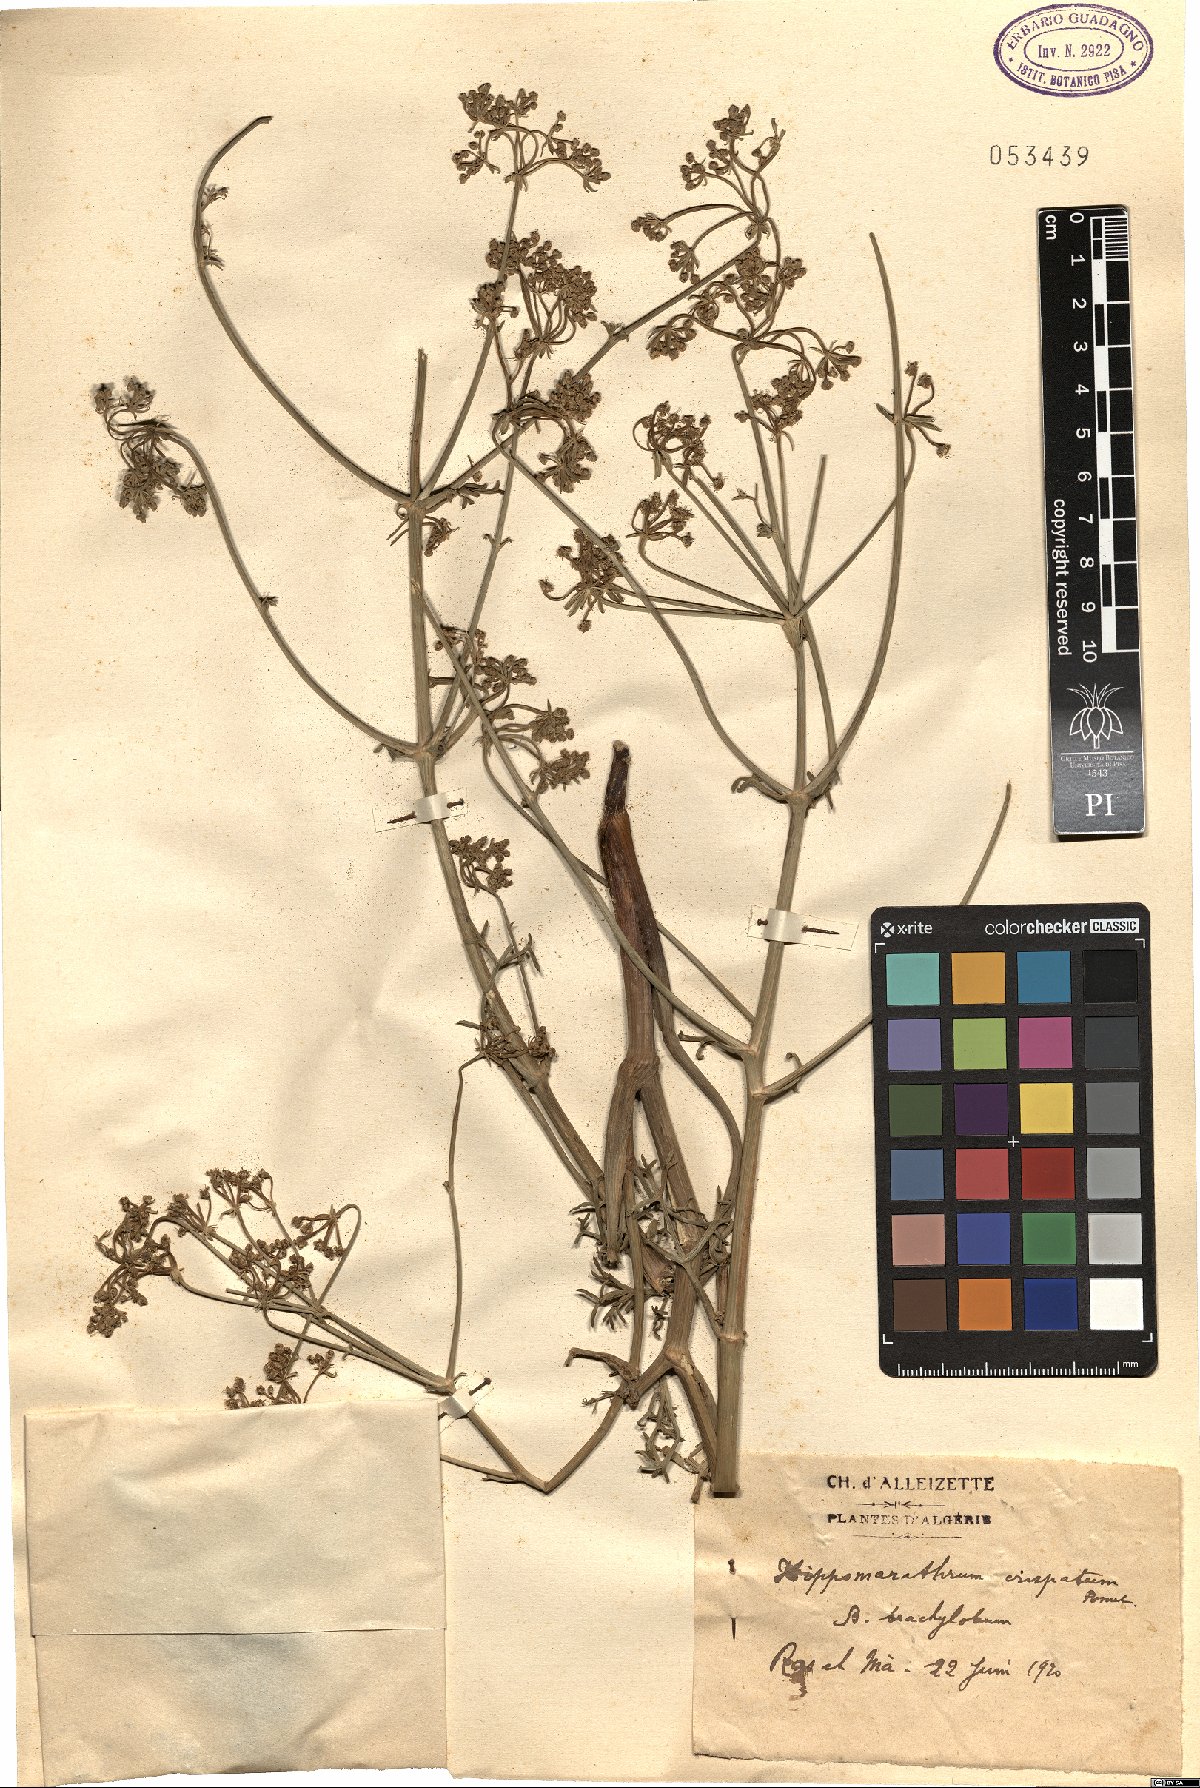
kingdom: Plantae
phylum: Tracheophyta
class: Magnoliopsida
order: Apiales
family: Apiaceae
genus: Cachrys
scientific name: Cachrys sicula
